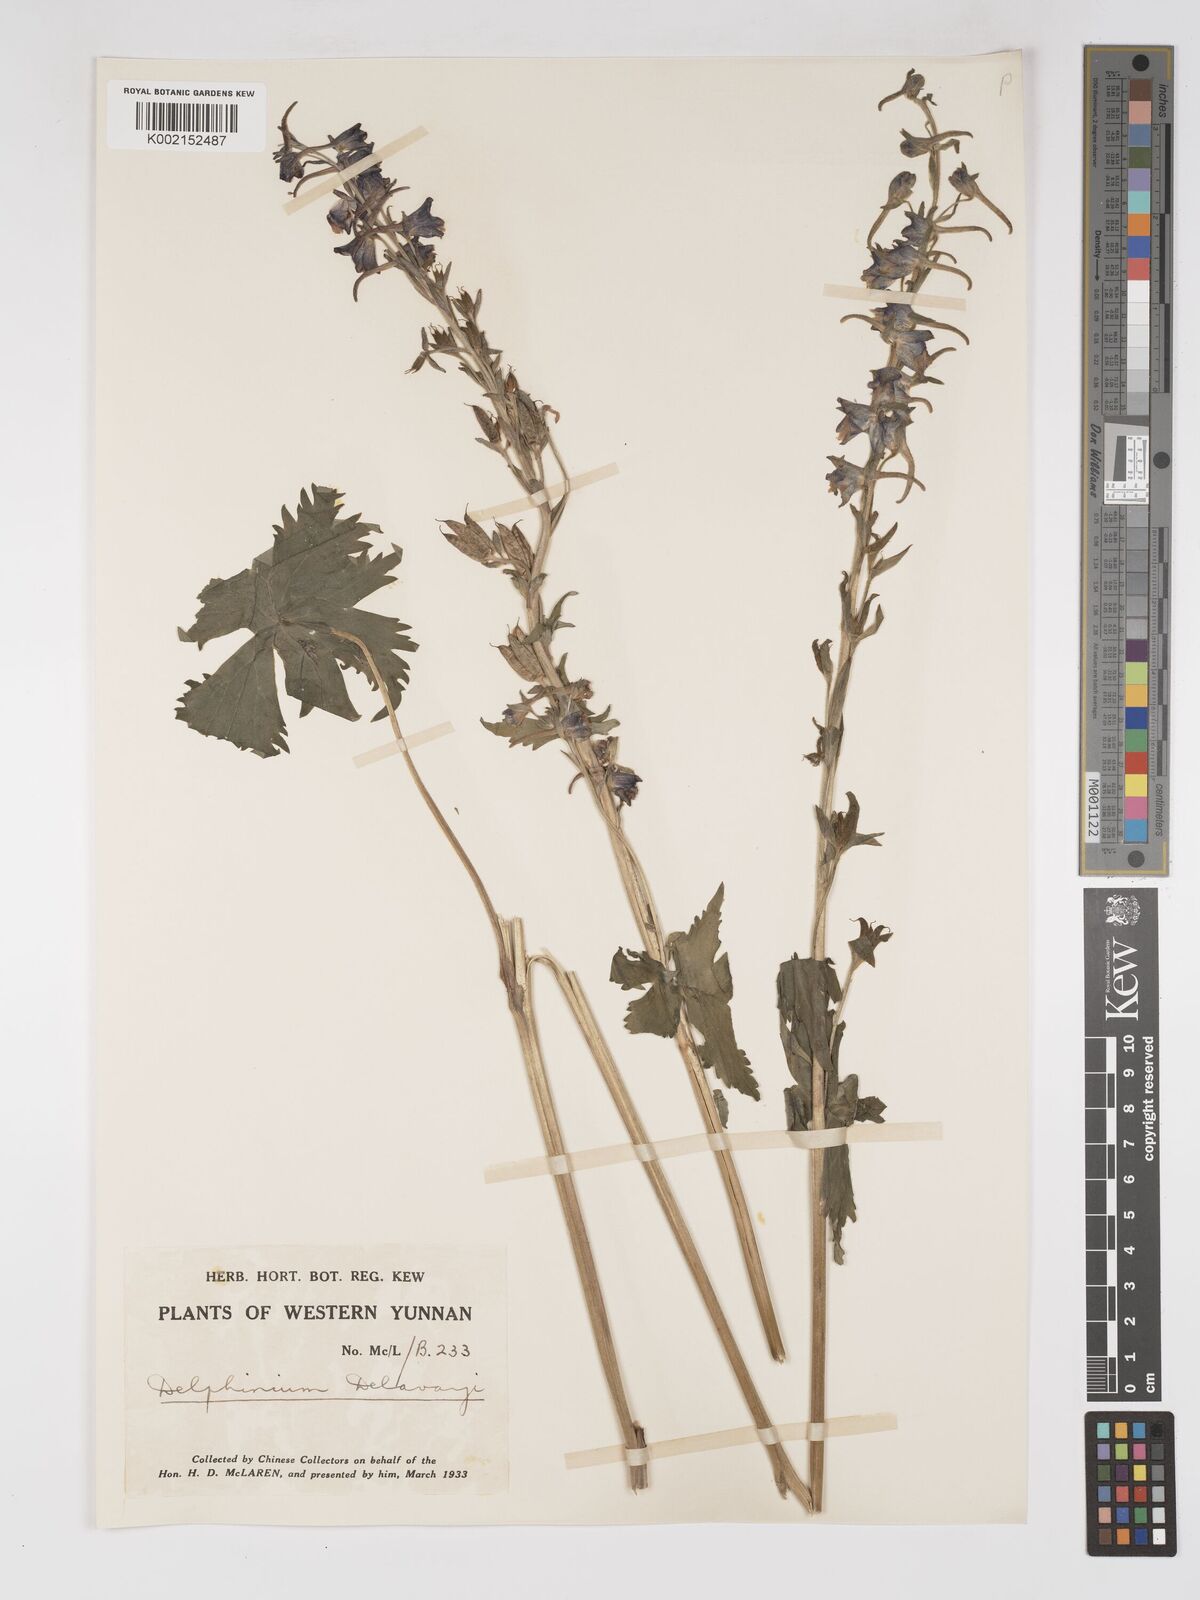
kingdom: Plantae
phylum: Tracheophyta
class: Magnoliopsida
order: Ranunculales
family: Ranunculaceae
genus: Delphinium
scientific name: Delphinium delavayi
